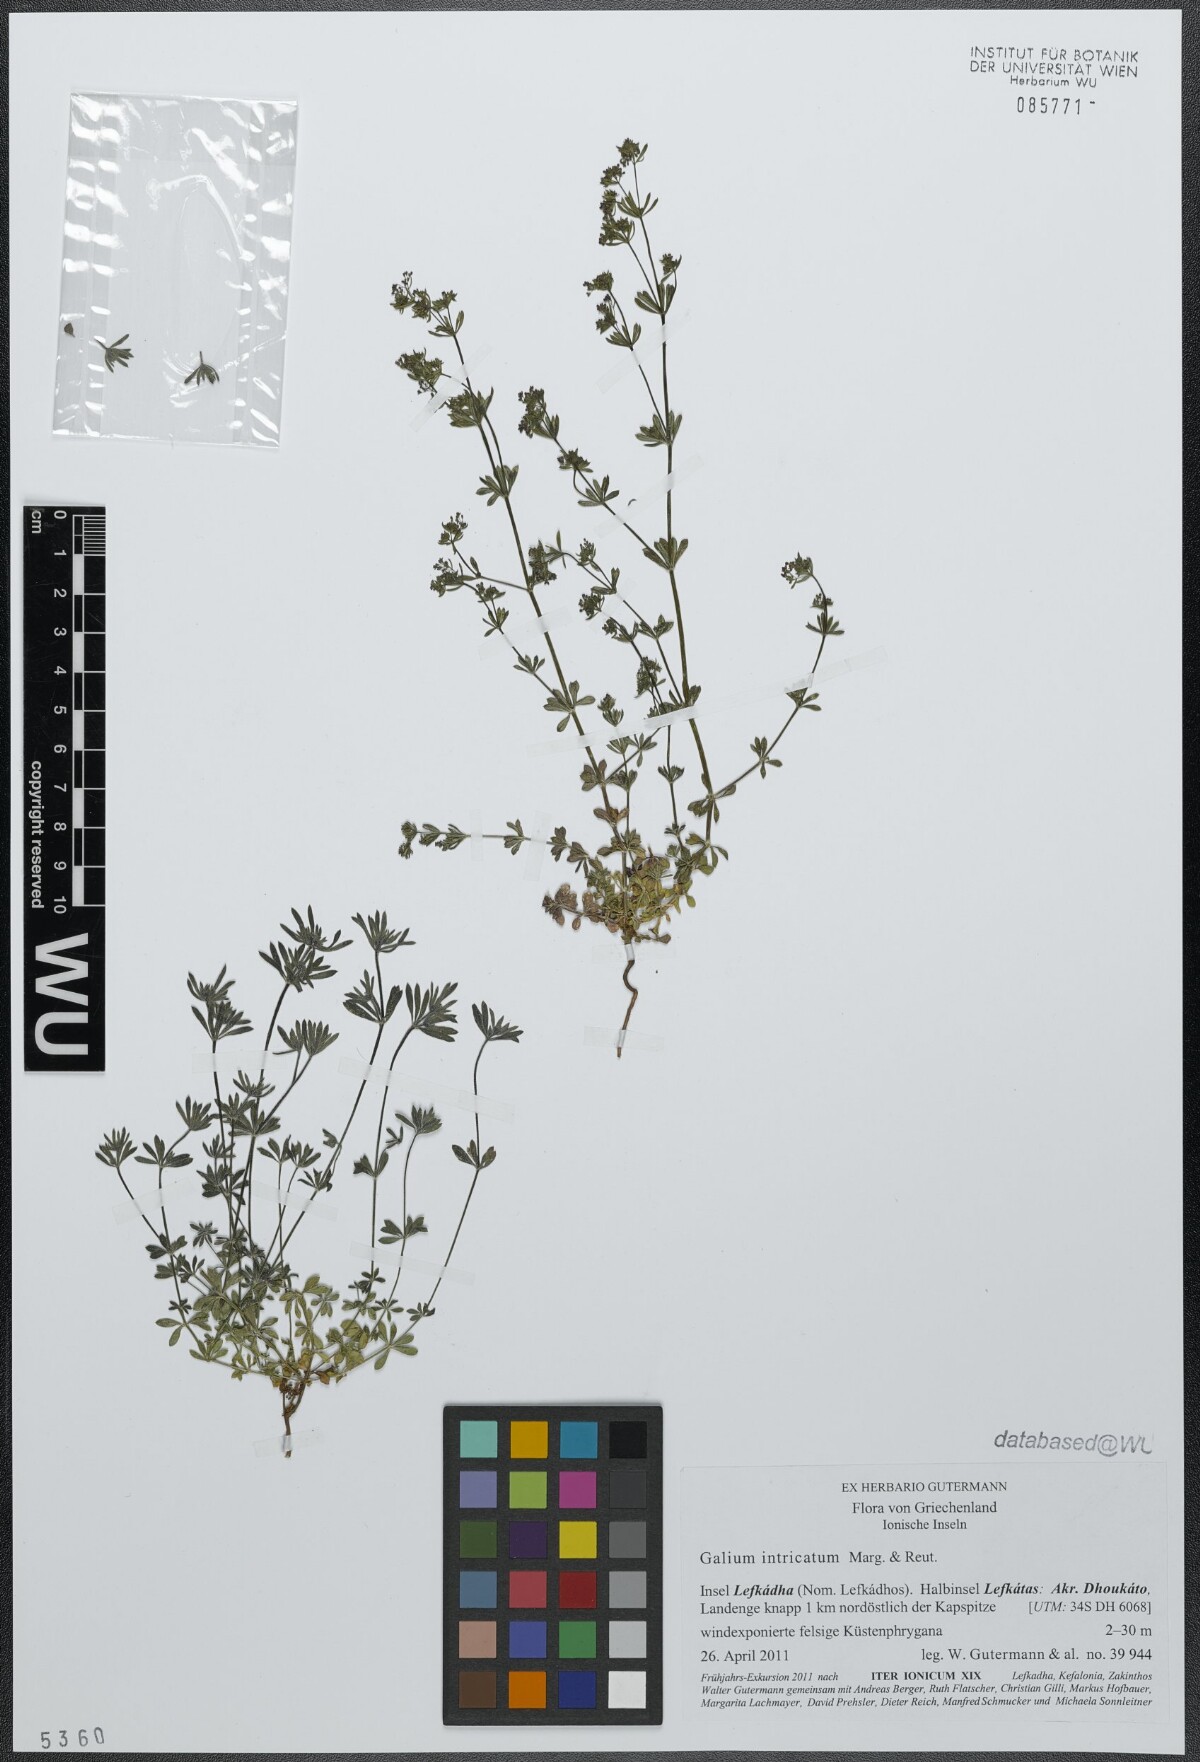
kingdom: Plantae
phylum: Tracheophyta
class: Magnoliopsida
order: Gentianales
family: Rubiaceae
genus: Galium
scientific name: Galium intricatum
